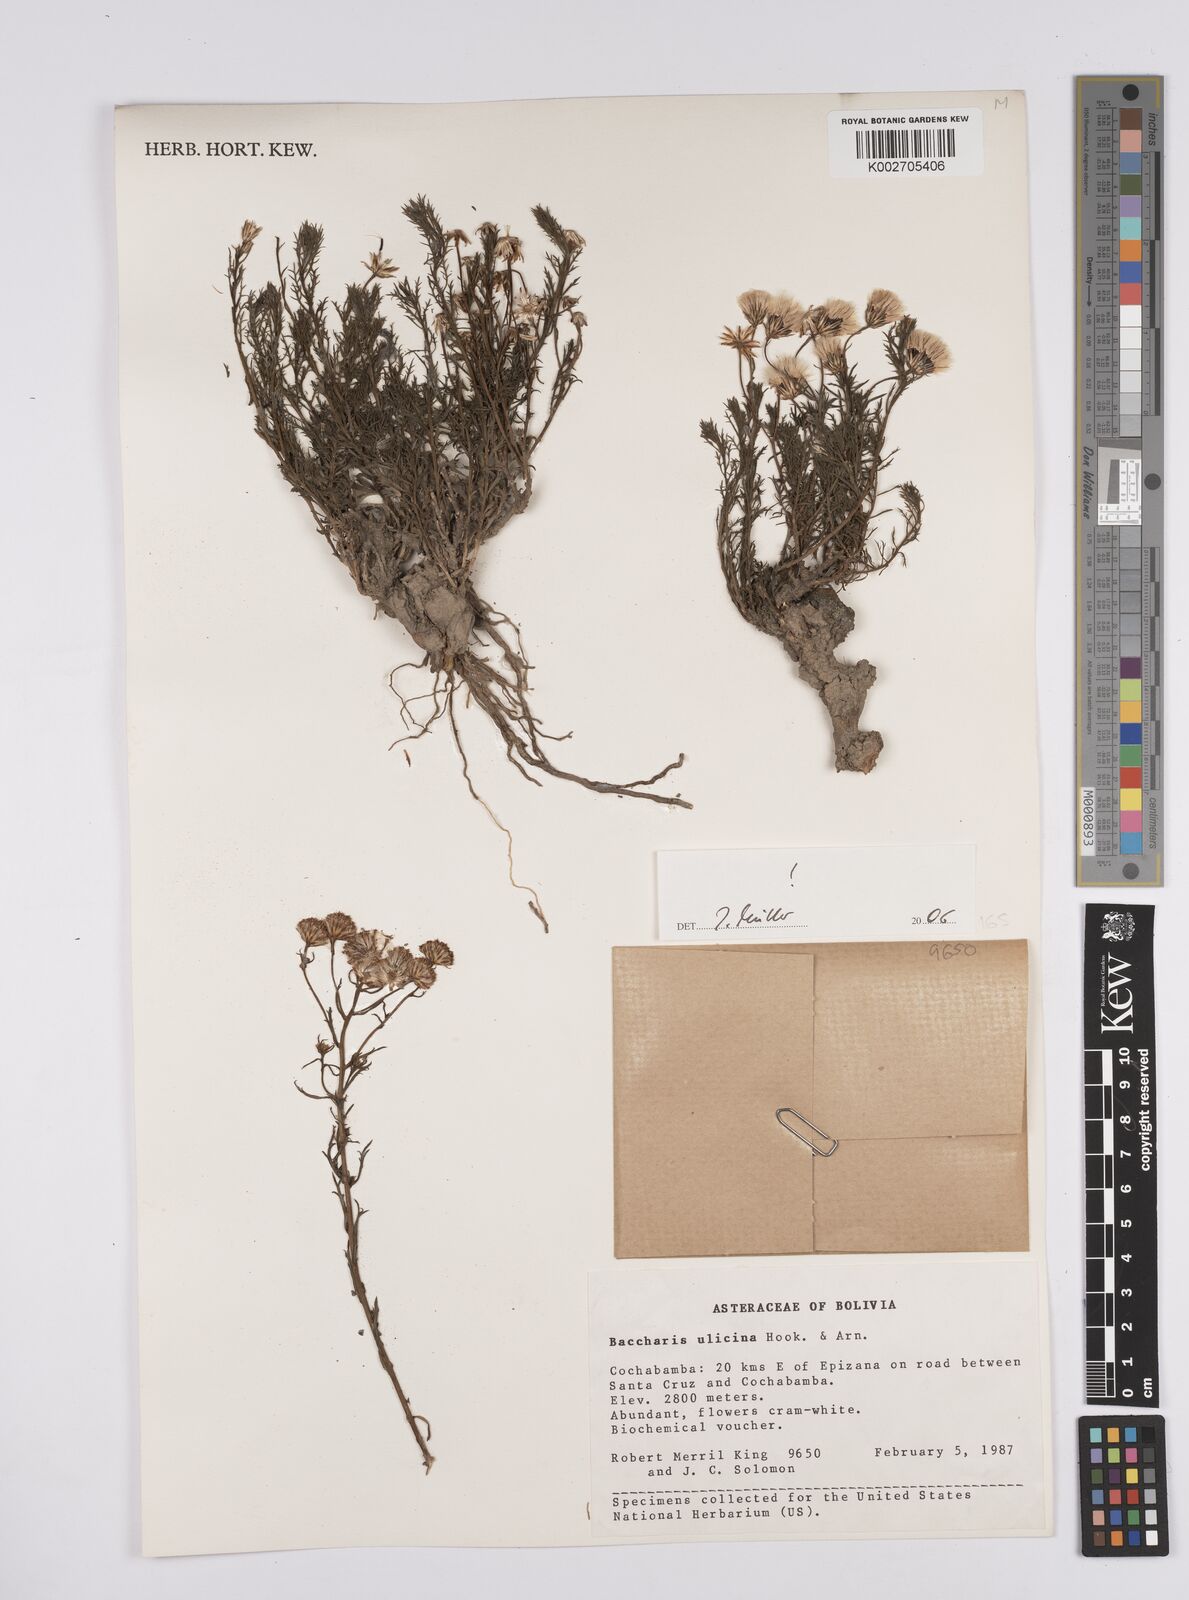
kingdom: Plantae
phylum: Tracheophyta
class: Magnoliopsida
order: Asterales
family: Asteraceae
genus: Baccharis
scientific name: Baccharis ulicina
